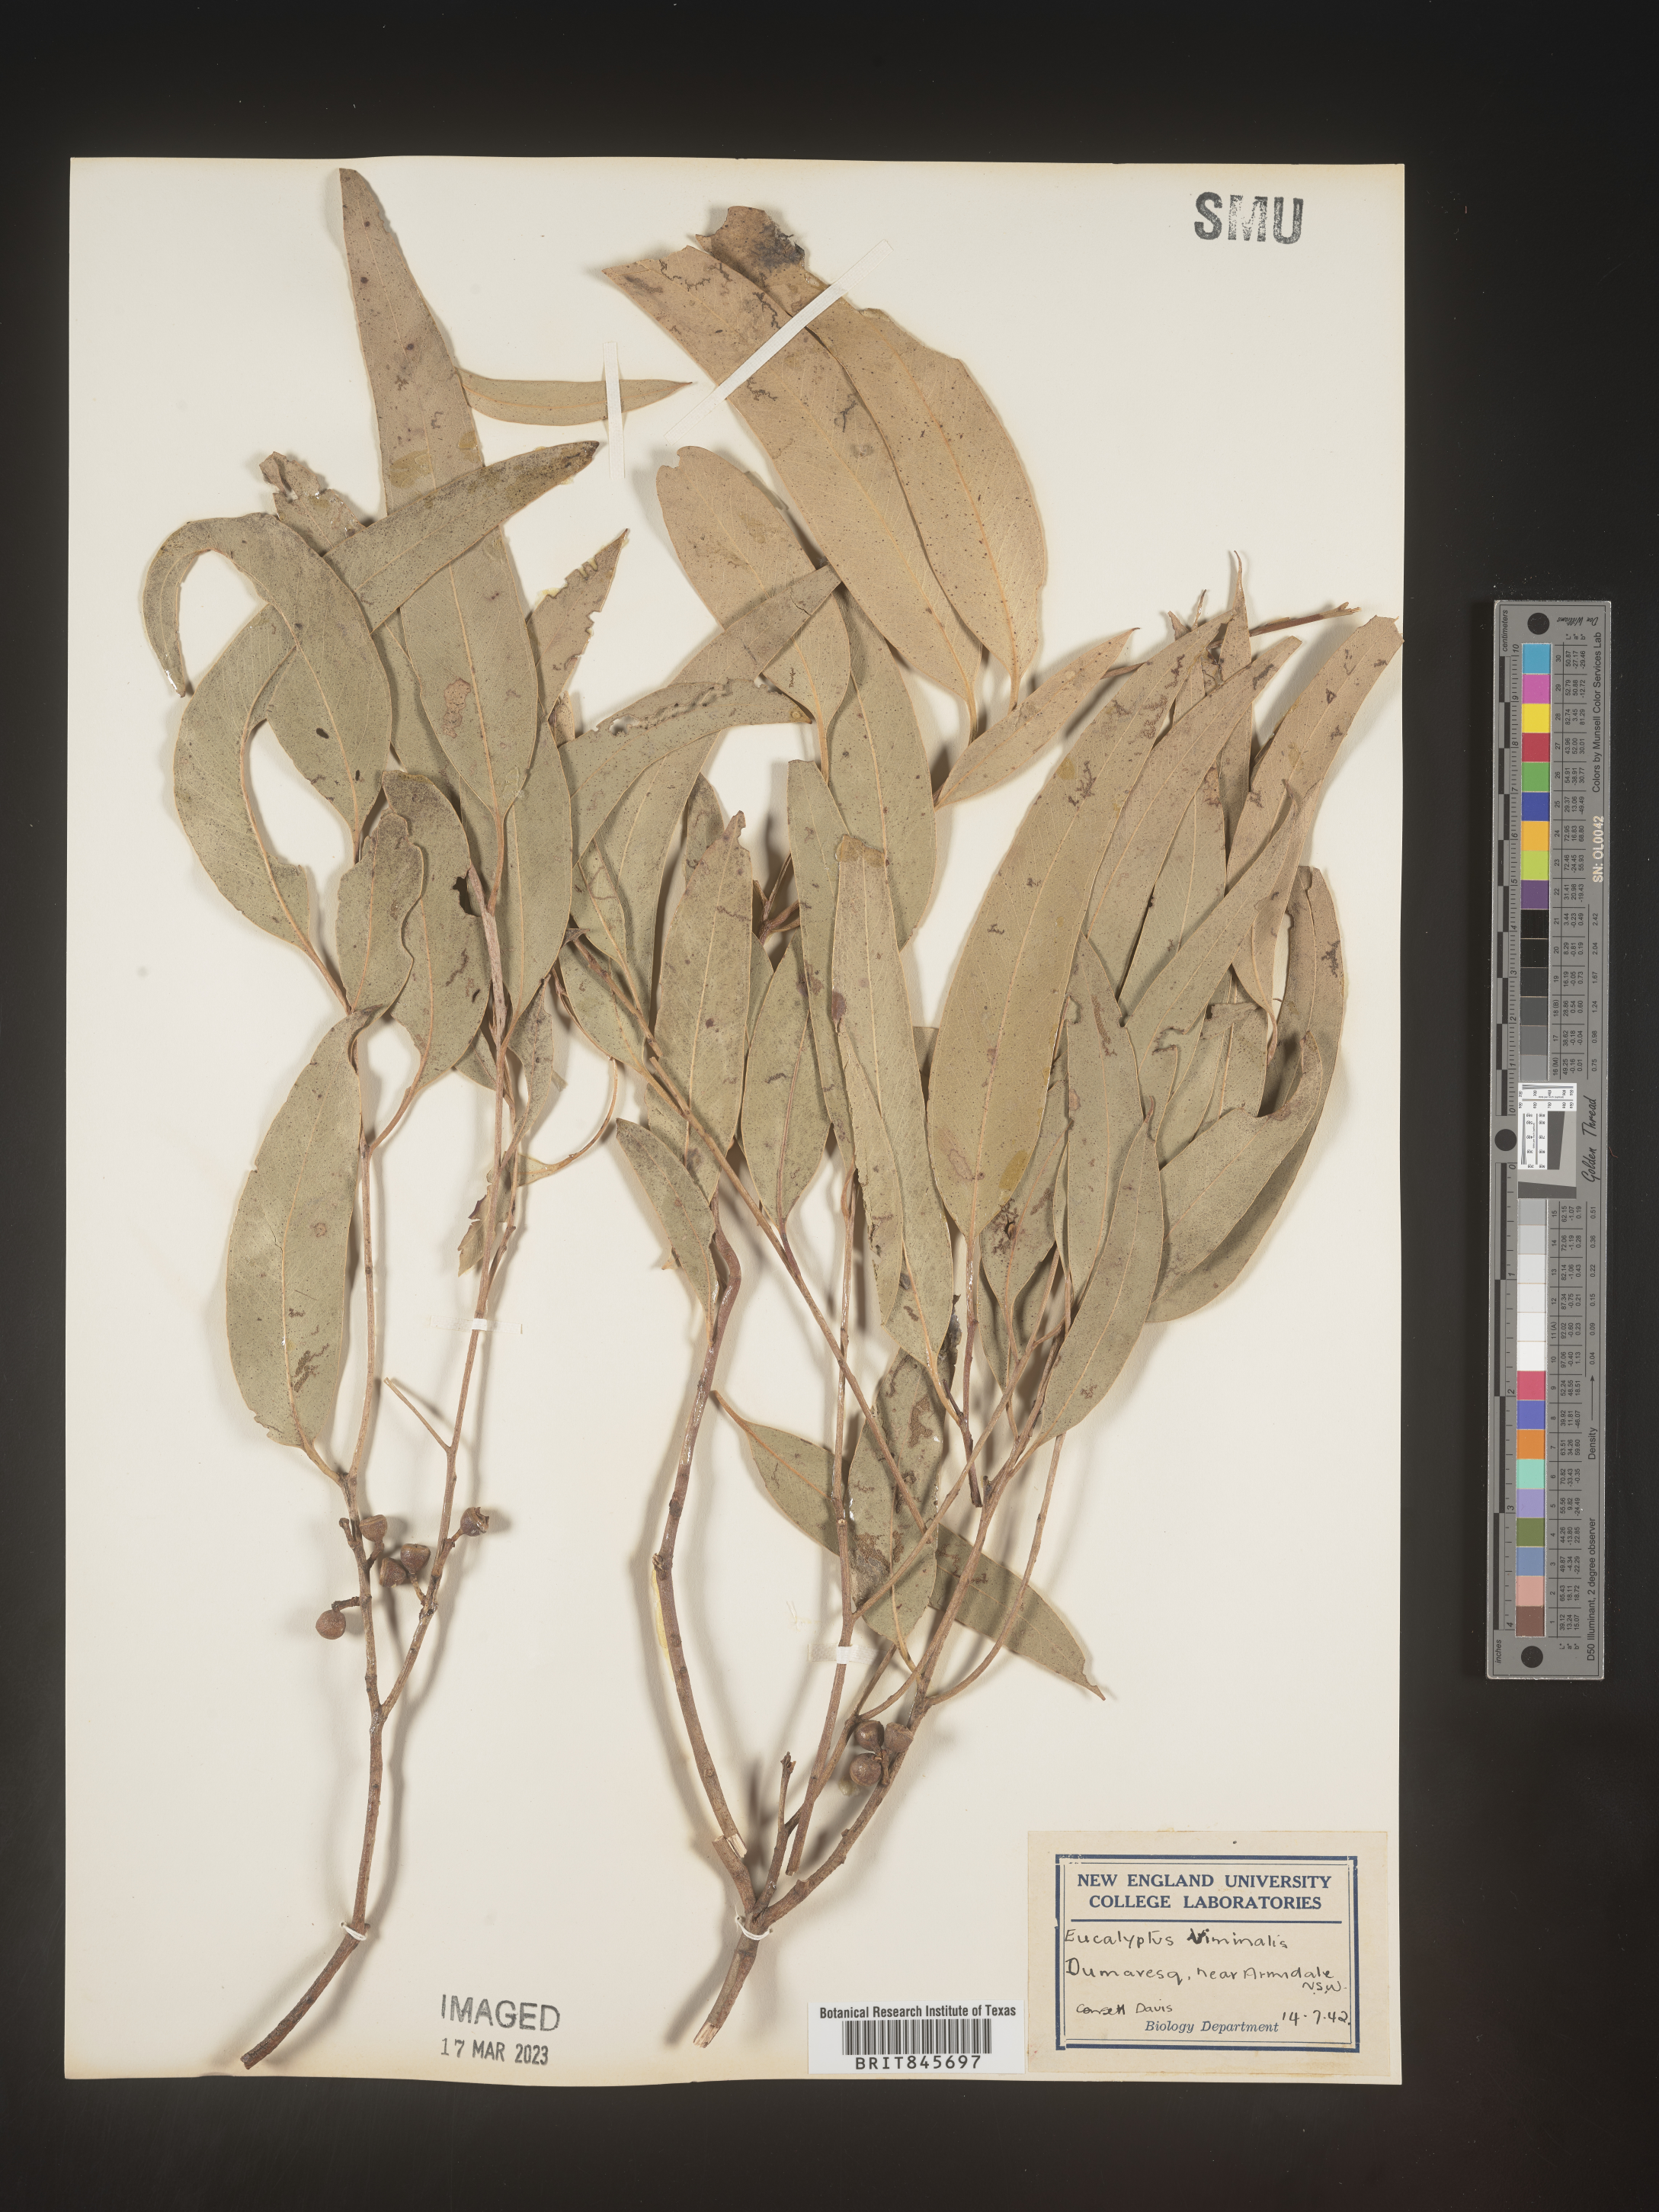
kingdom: Plantae
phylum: Tracheophyta
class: Magnoliopsida
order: Myrtales
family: Myrtaceae
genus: Eucalyptus
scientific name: Eucalyptus
